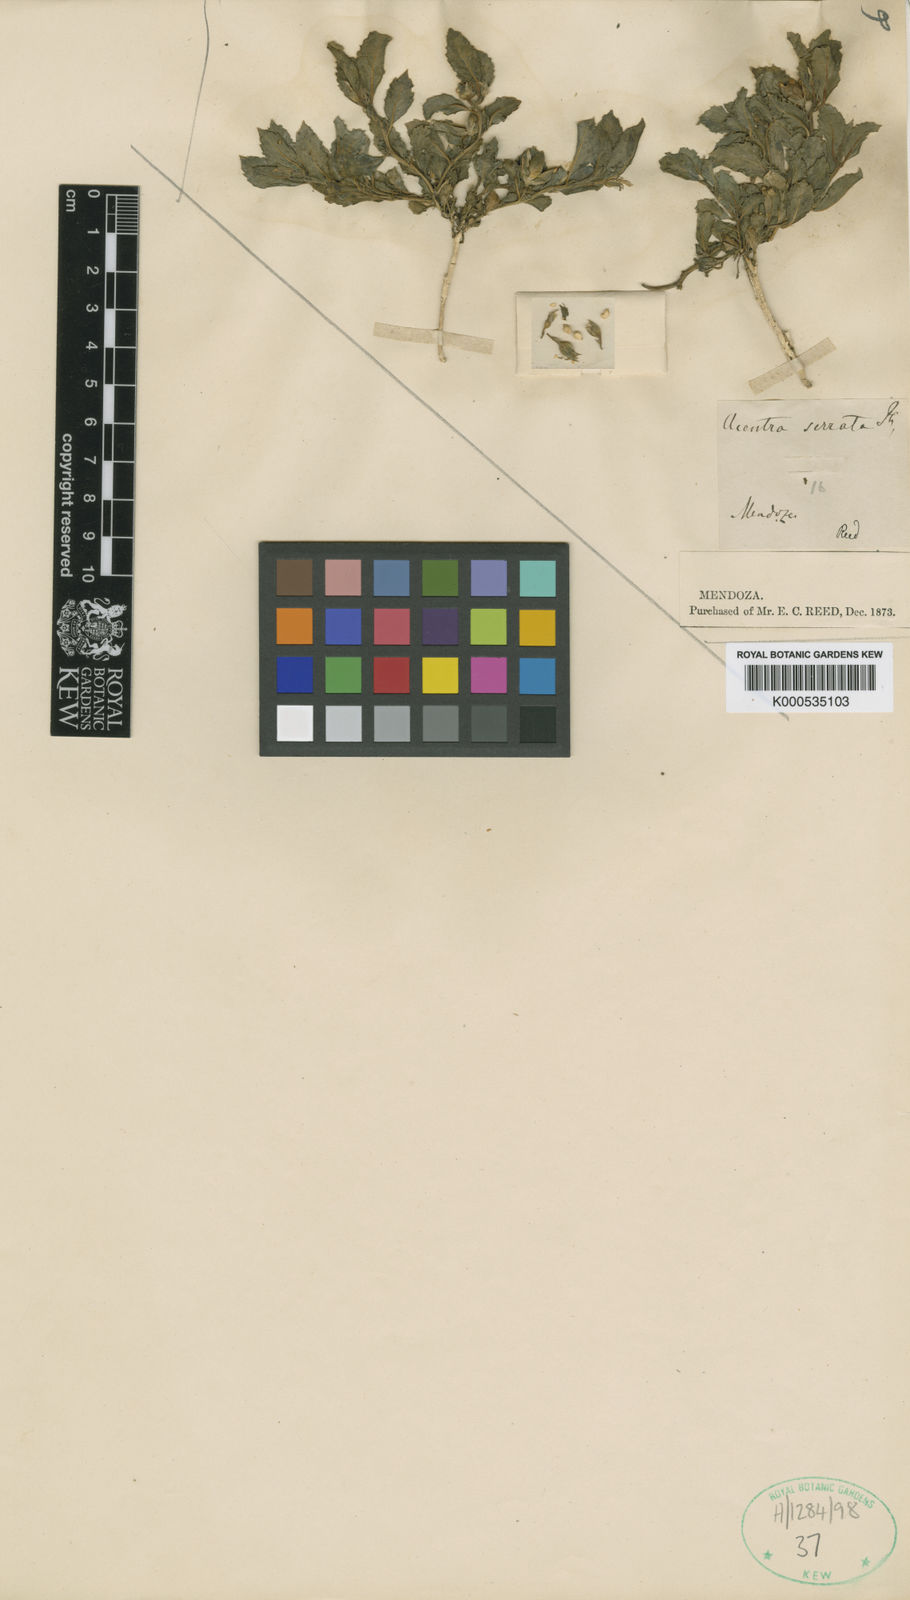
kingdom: Plantae
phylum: Tracheophyta
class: Magnoliopsida
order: Malpighiales
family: Violaceae
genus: Pombalia
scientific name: Pombalia serrata
